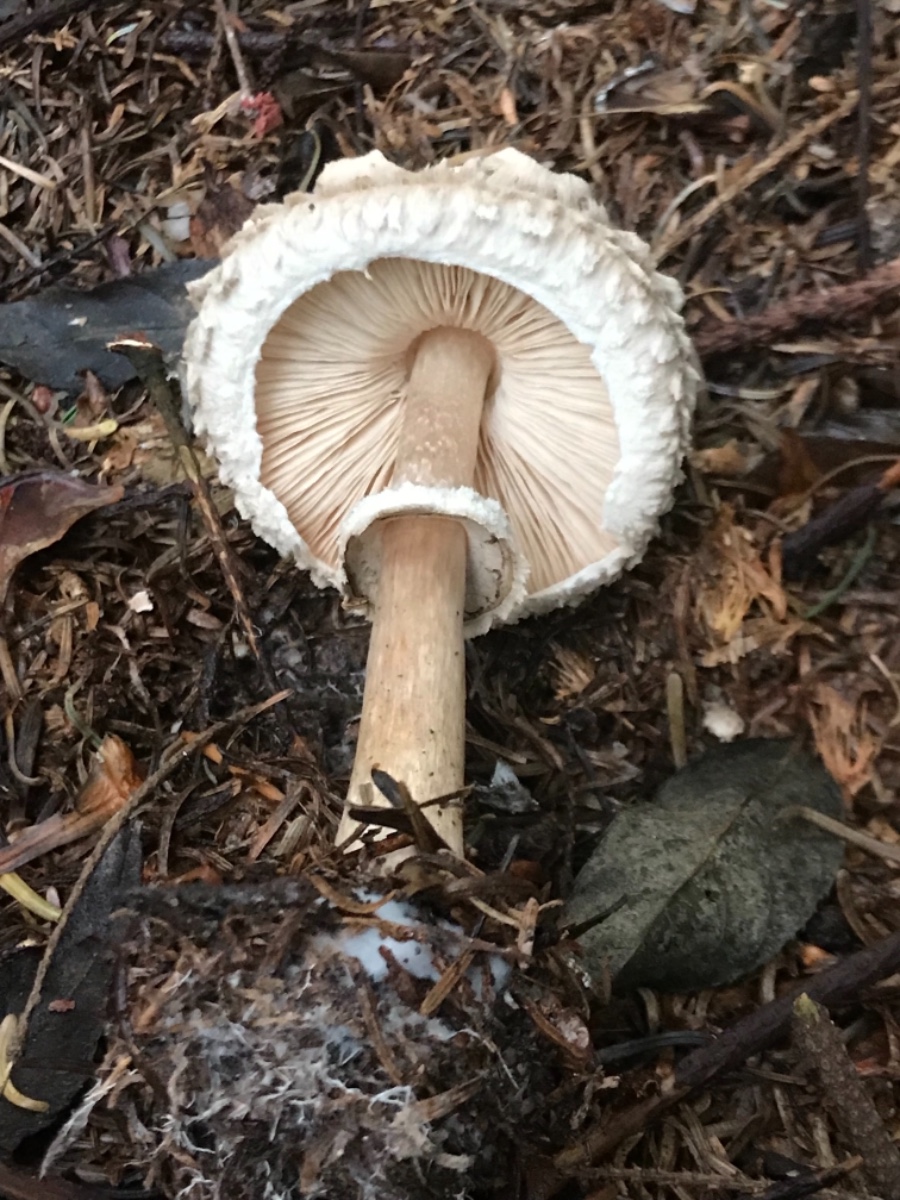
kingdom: Fungi
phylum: Basidiomycota
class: Agaricomycetes
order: Agaricales
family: Agaricaceae
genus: Chlorophyllum
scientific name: Chlorophyllum olivieri
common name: almindelig rabarberhat
